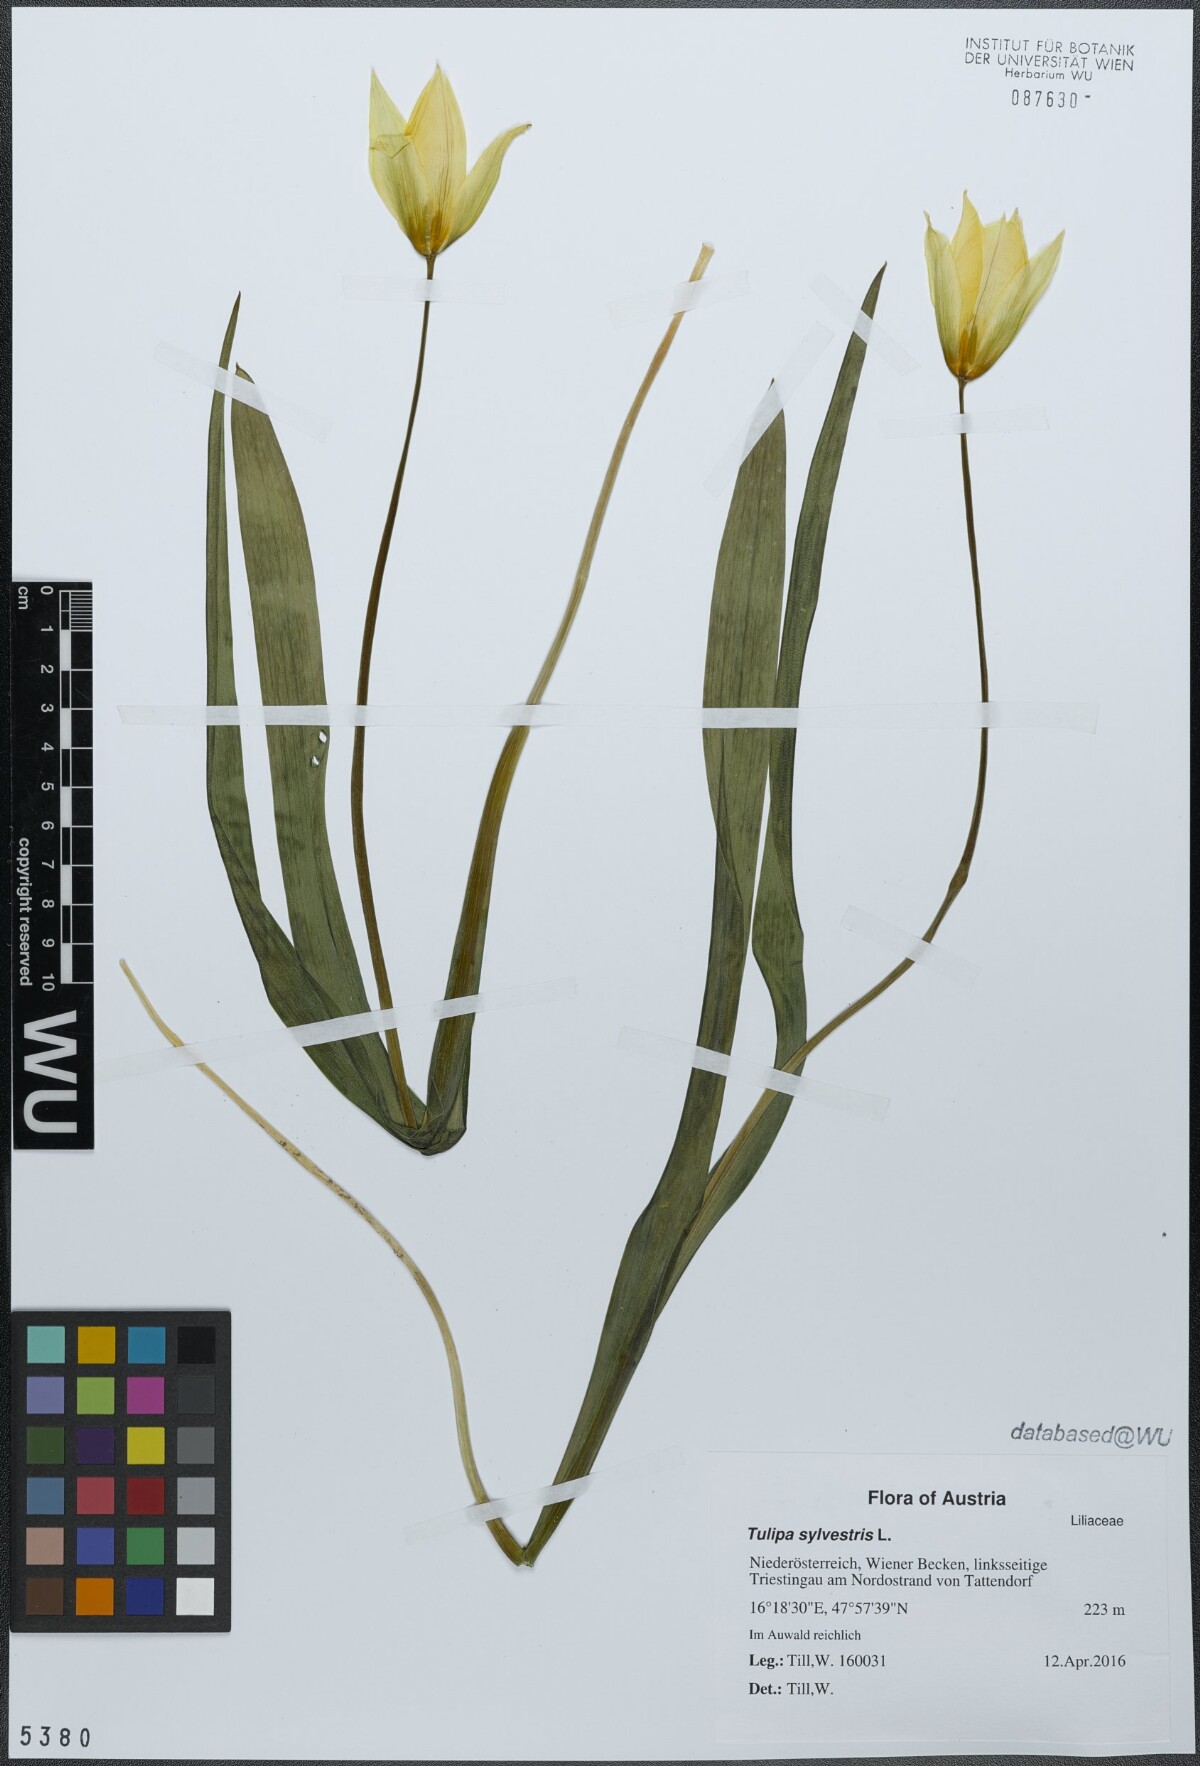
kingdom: Plantae
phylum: Tracheophyta
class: Liliopsida
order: Liliales
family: Liliaceae
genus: Tulipa
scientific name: Tulipa sylvestris
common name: Wild tulip
